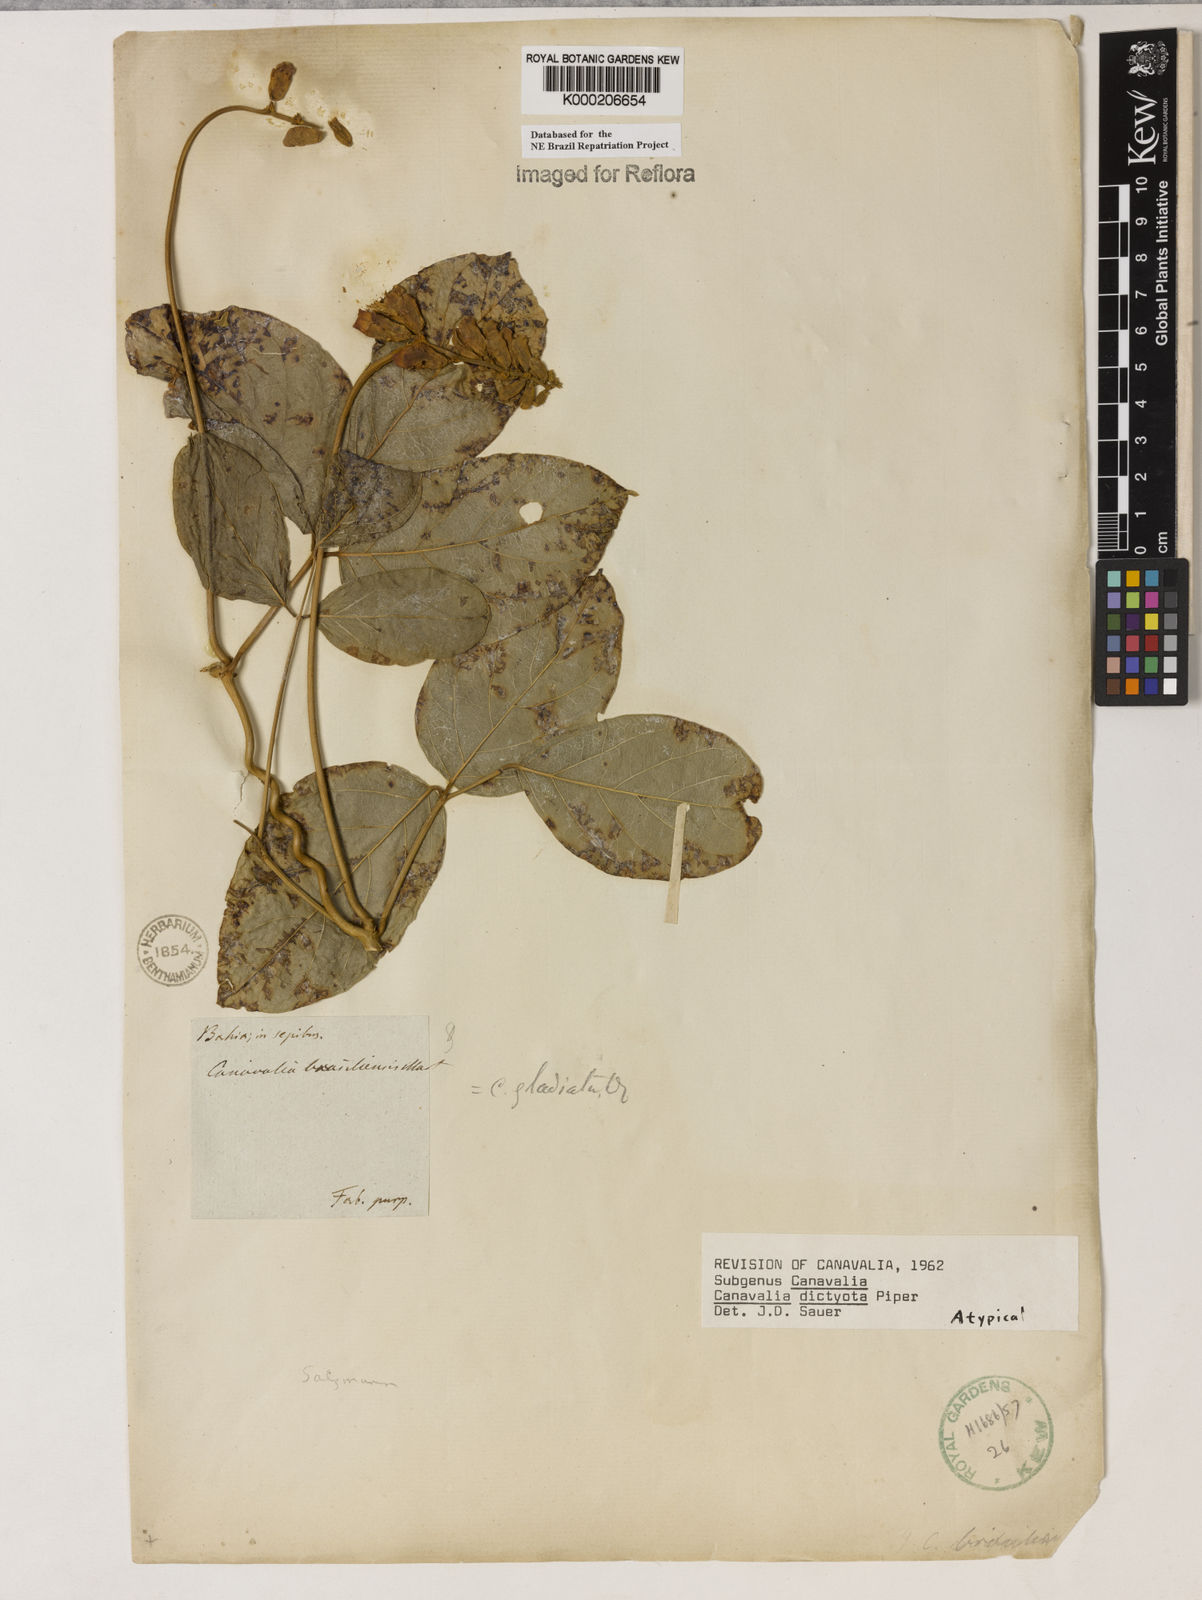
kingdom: Plantae
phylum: Tracheophyta
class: Magnoliopsida
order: Fabales
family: Fabaceae
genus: Canavalia
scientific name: Canavalia brasiliensis
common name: Barbicou-bean
